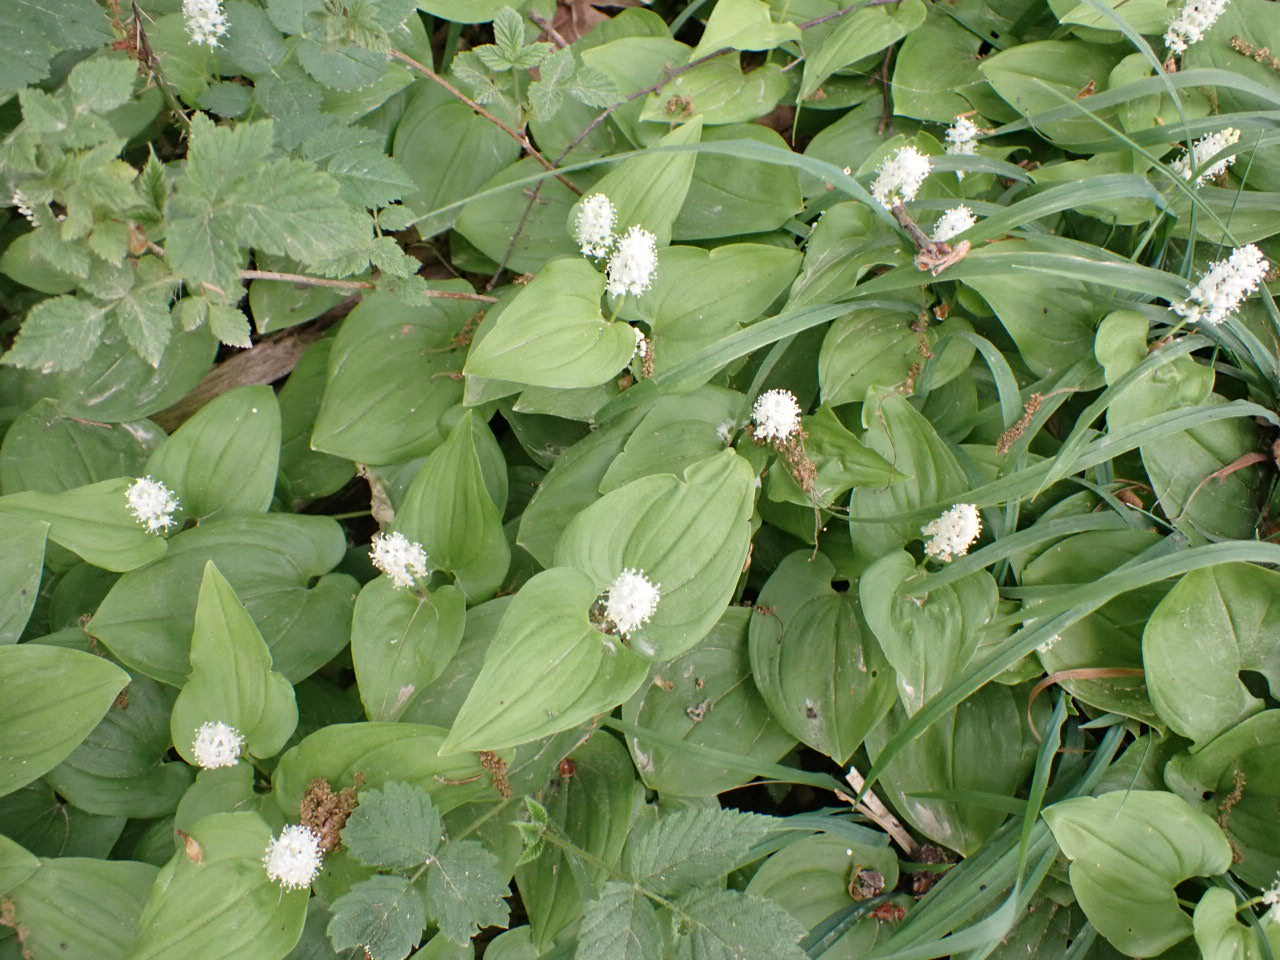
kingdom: Plantae
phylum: Tracheophyta
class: Liliopsida
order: Asparagales
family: Asparagaceae
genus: Maianthemum
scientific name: Maianthemum bifolium
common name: Majblomst
